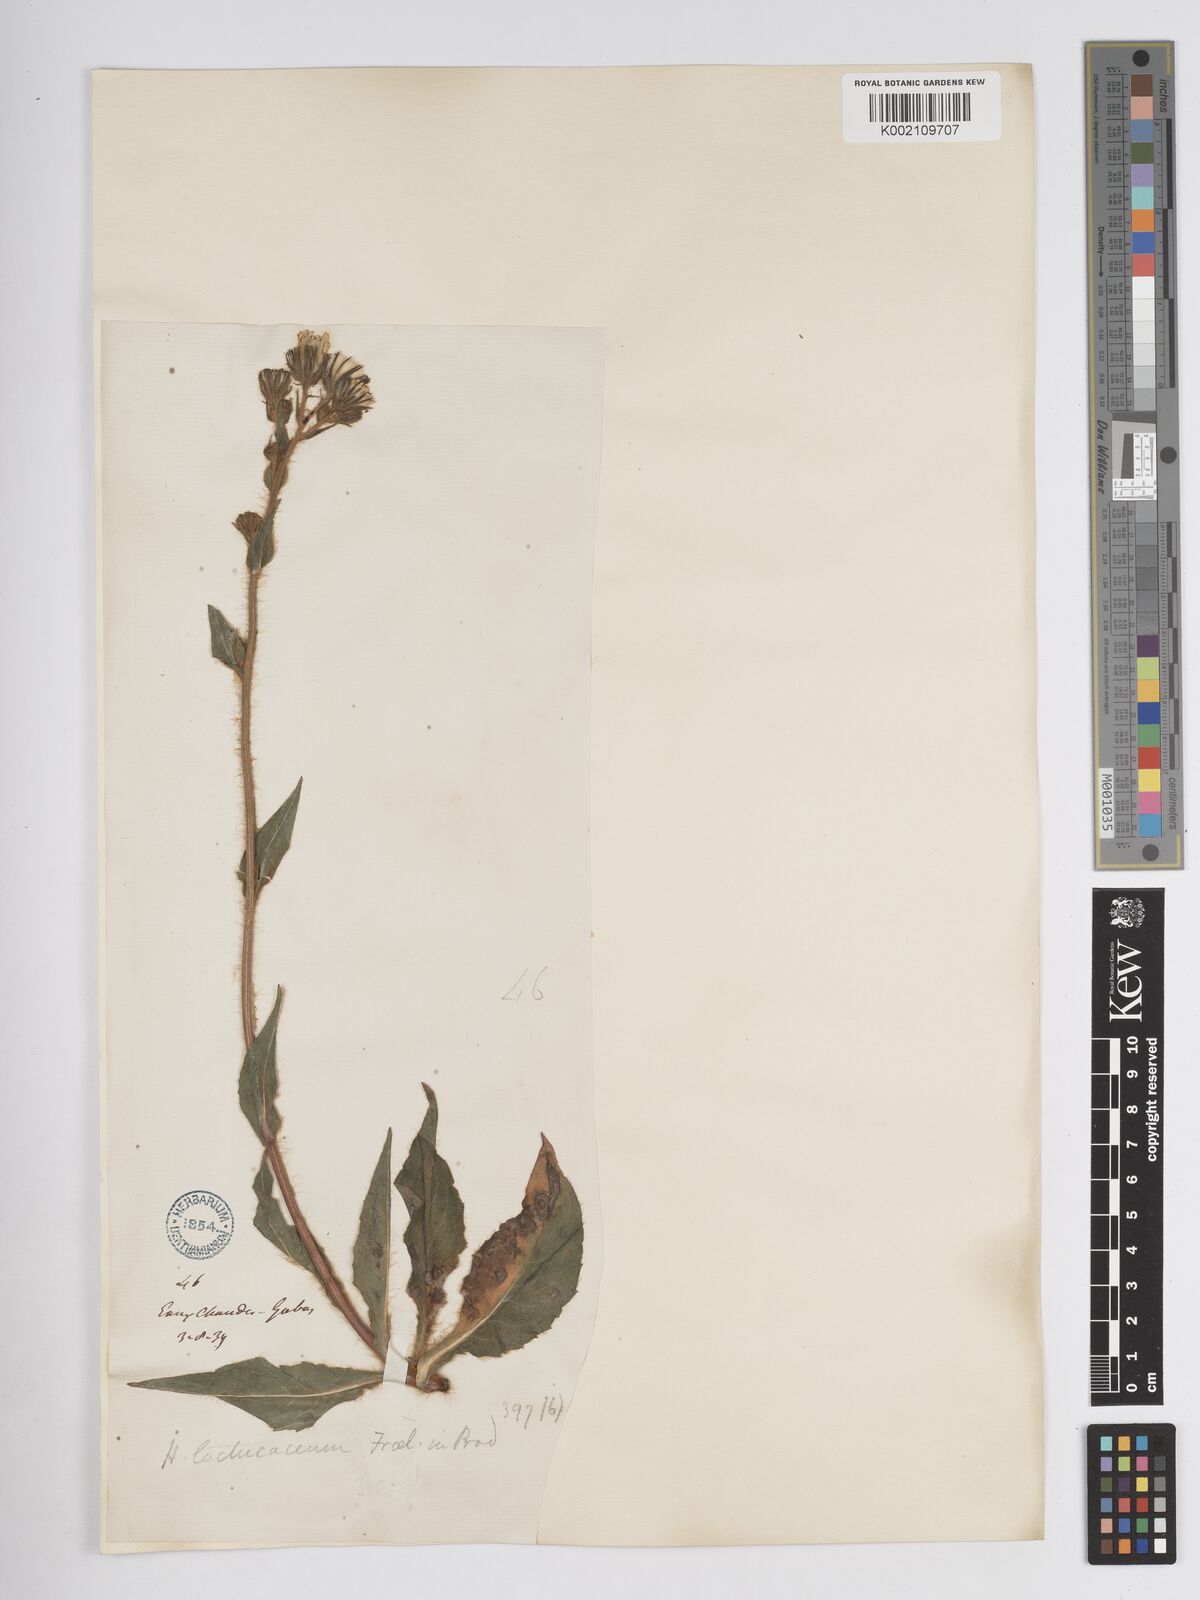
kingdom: Plantae
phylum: Tracheophyta
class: Magnoliopsida
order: Asterales
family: Asteraceae
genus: Hieracium
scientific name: Hieracium nobile
